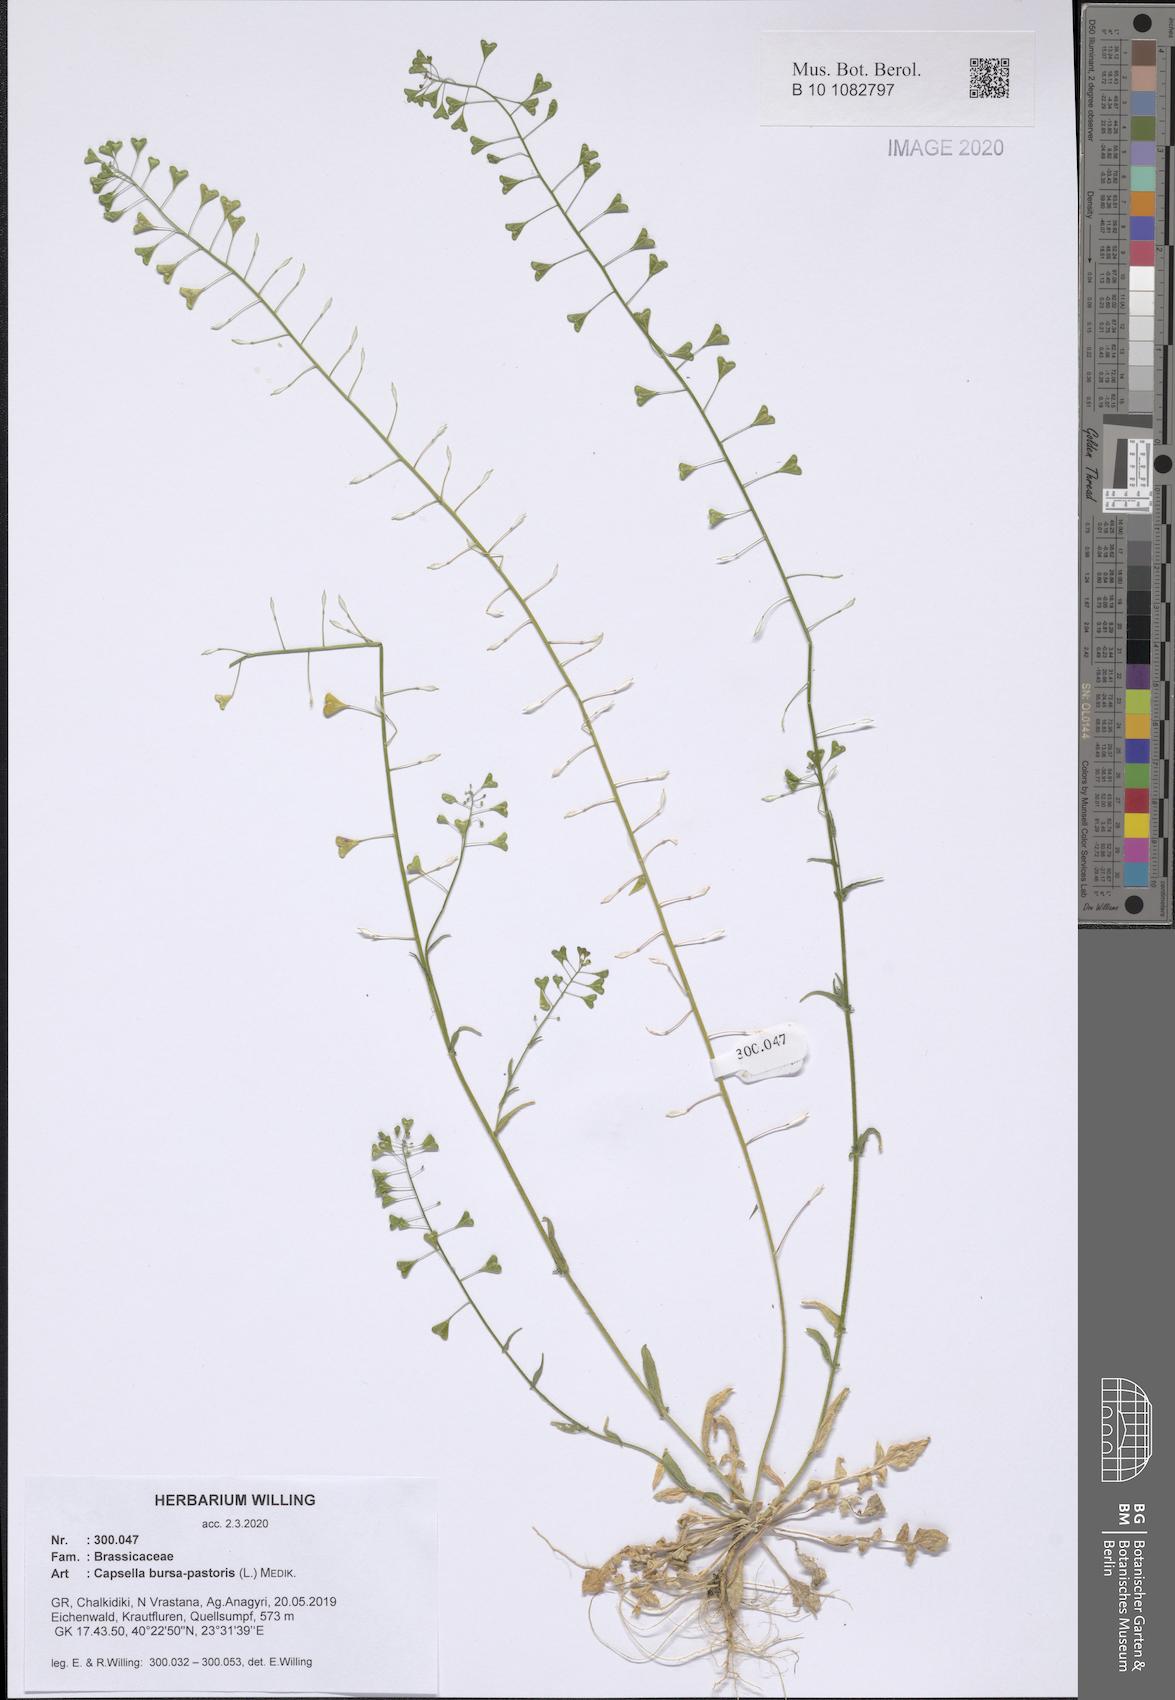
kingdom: Plantae
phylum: Tracheophyta
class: Magnoliopsida
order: Brassicales
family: Brassicaceae
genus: Capsella
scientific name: Capsella bursa-pastoris
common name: Shepherd's purse
